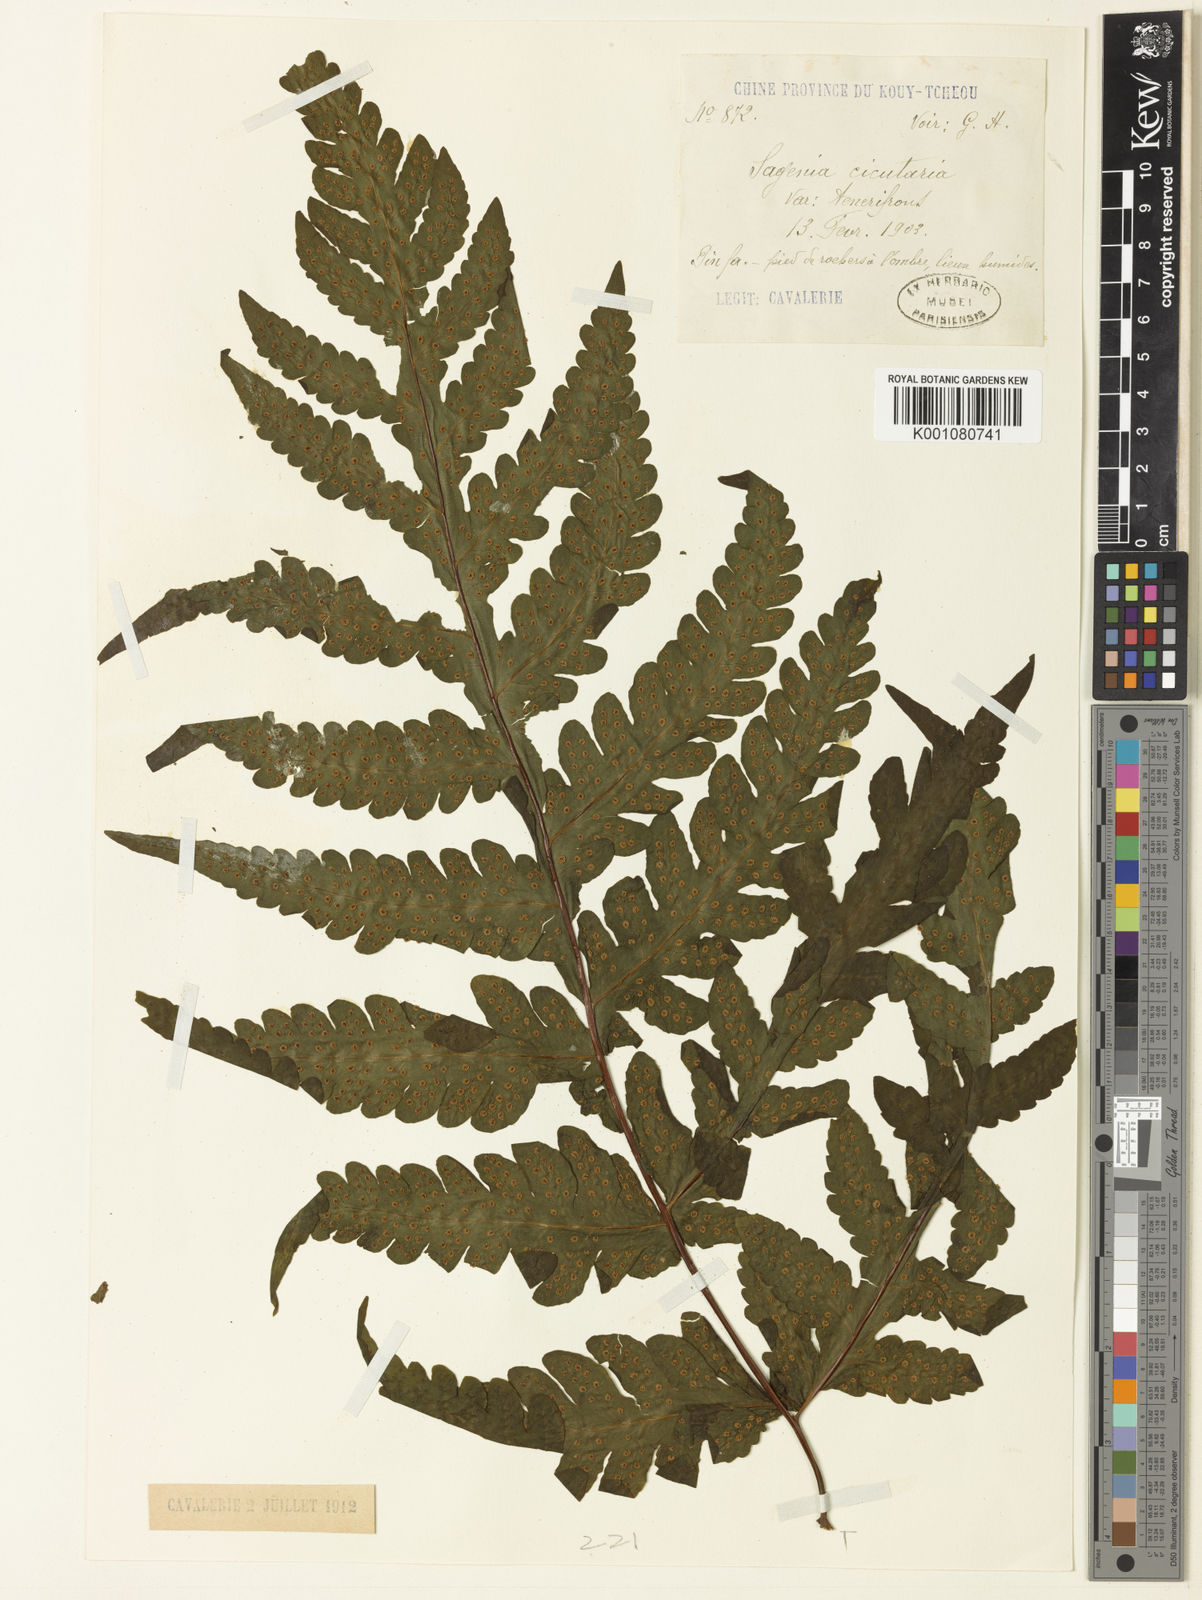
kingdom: Plantae
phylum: Tracheophyta
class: Polypodiopsida
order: Polypodiales
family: Tectariaceae
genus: Tectaria
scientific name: Tectaria coadunata
